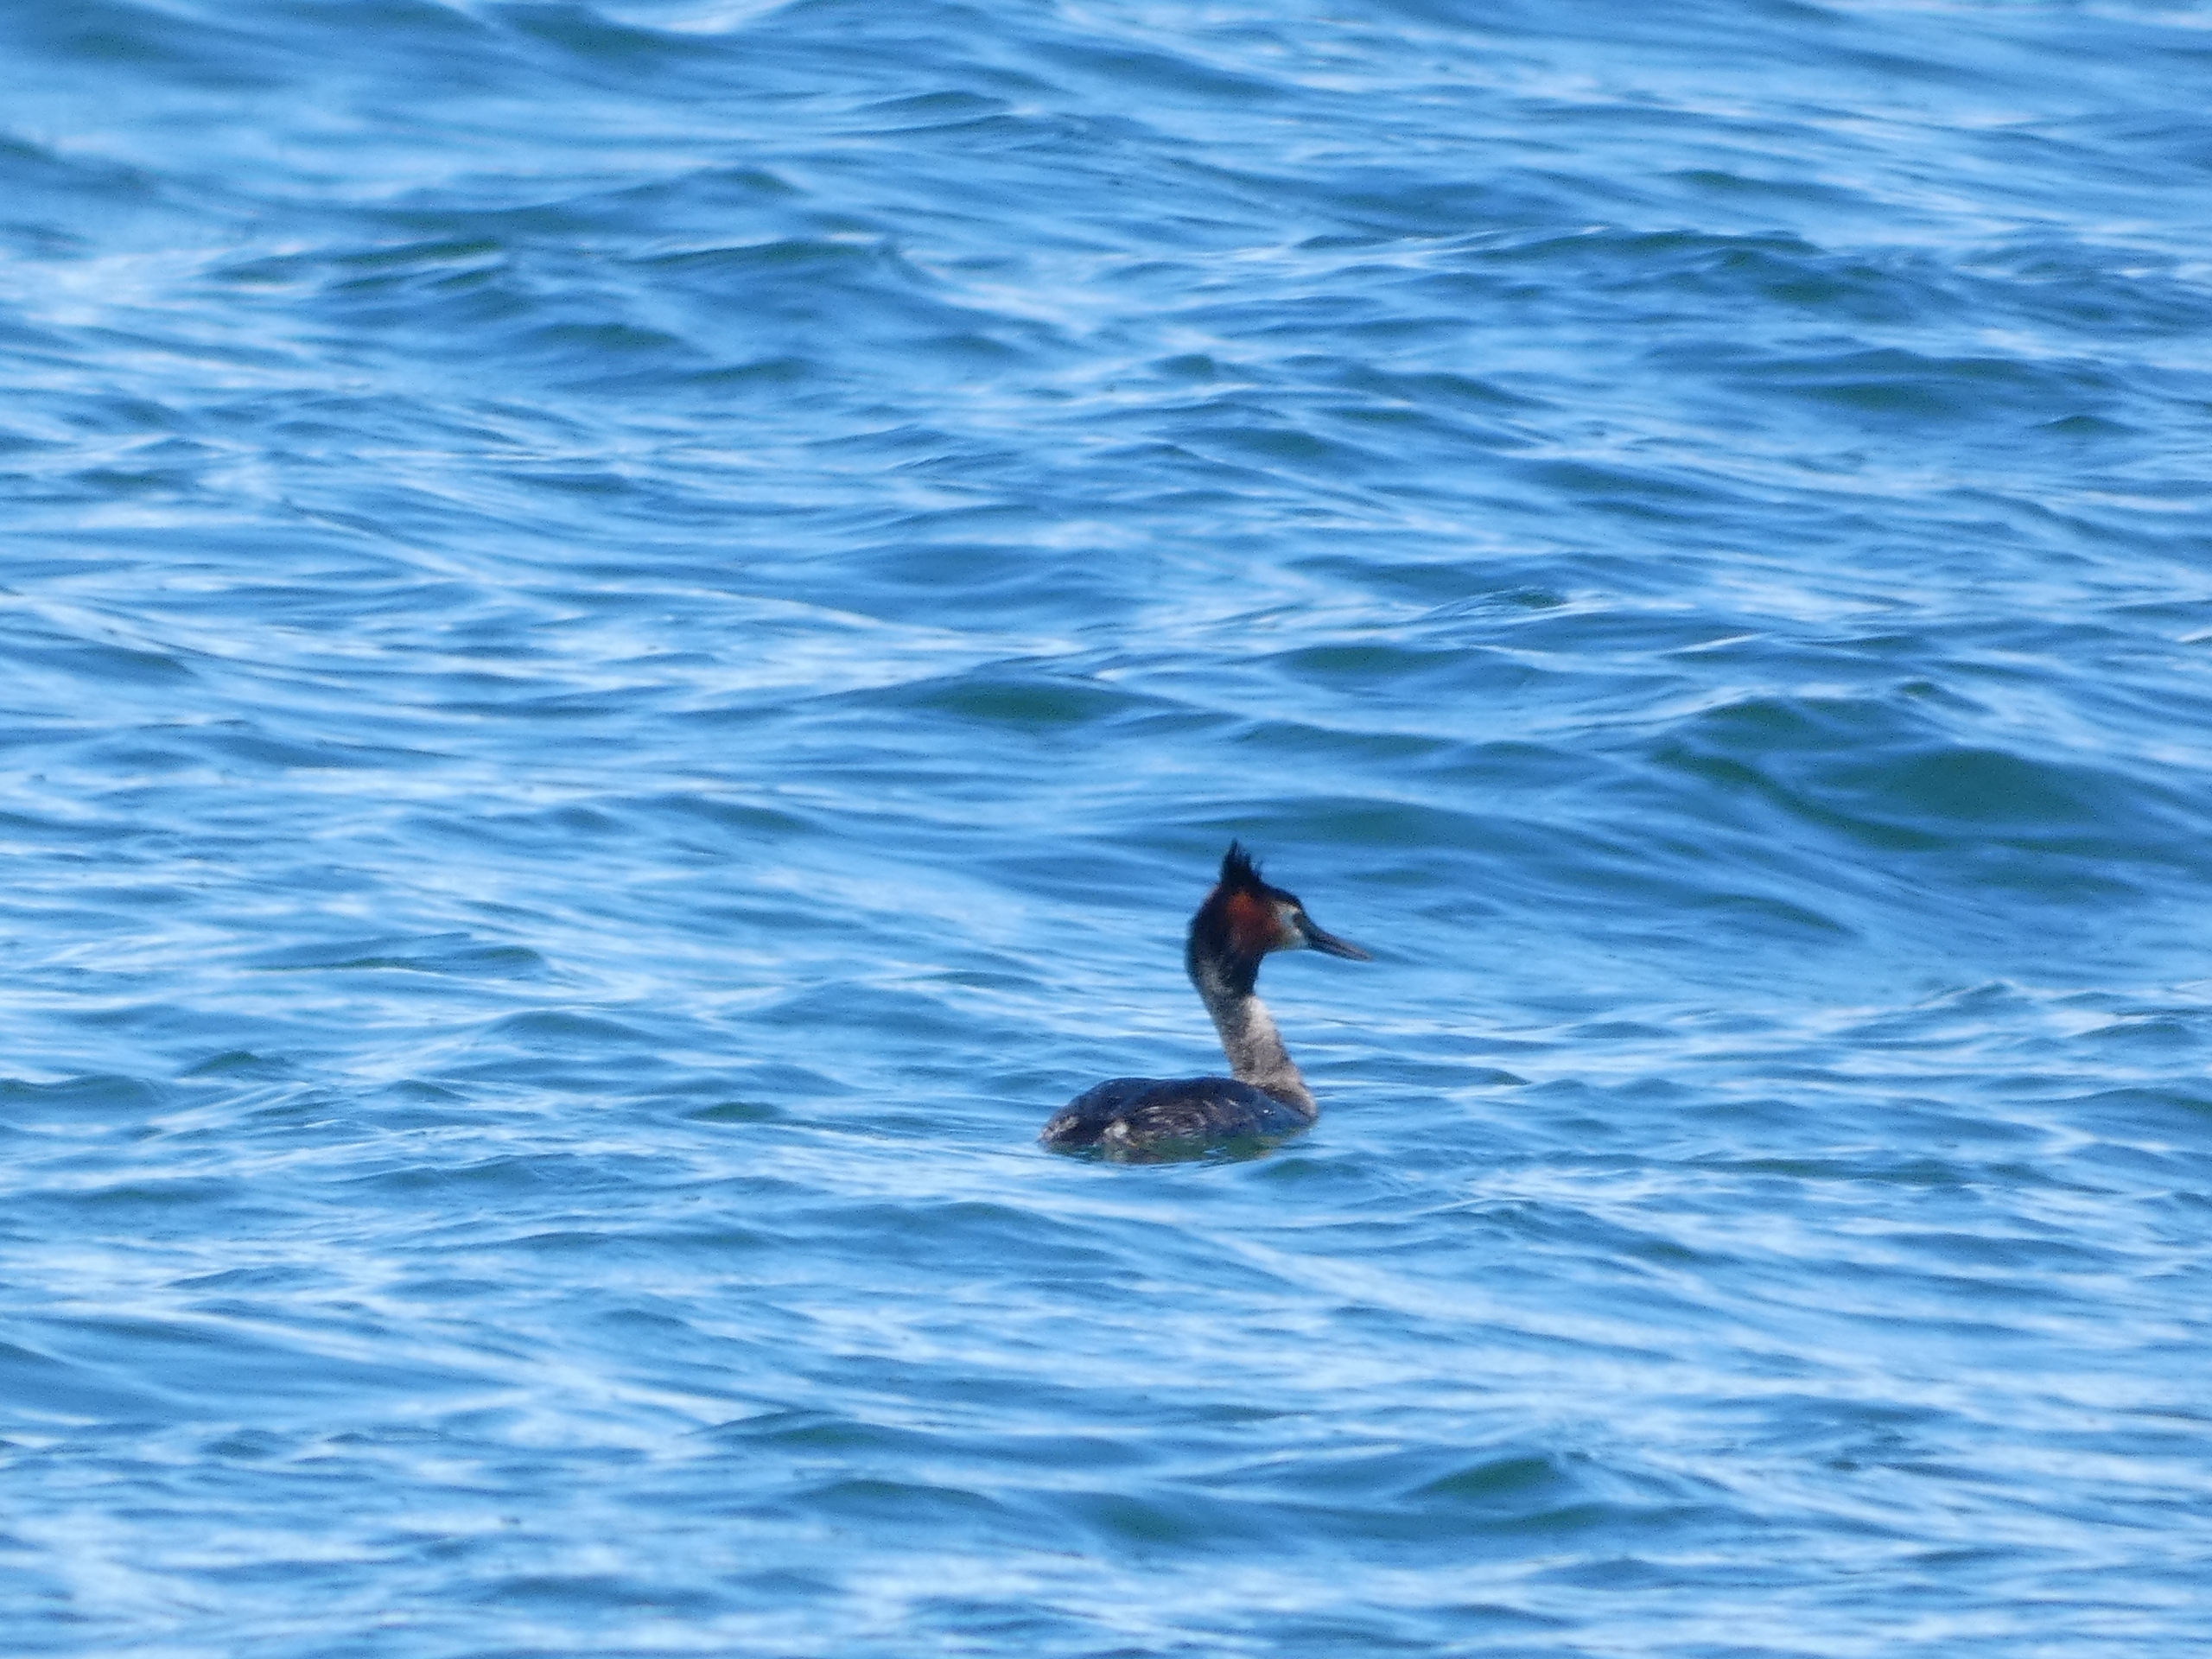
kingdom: Animalia
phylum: Chordata
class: Aves
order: Podicipediformes
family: Podicipedidae
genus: Podiceps
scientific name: Podiceps cristatus
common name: Toppet lappedykker
